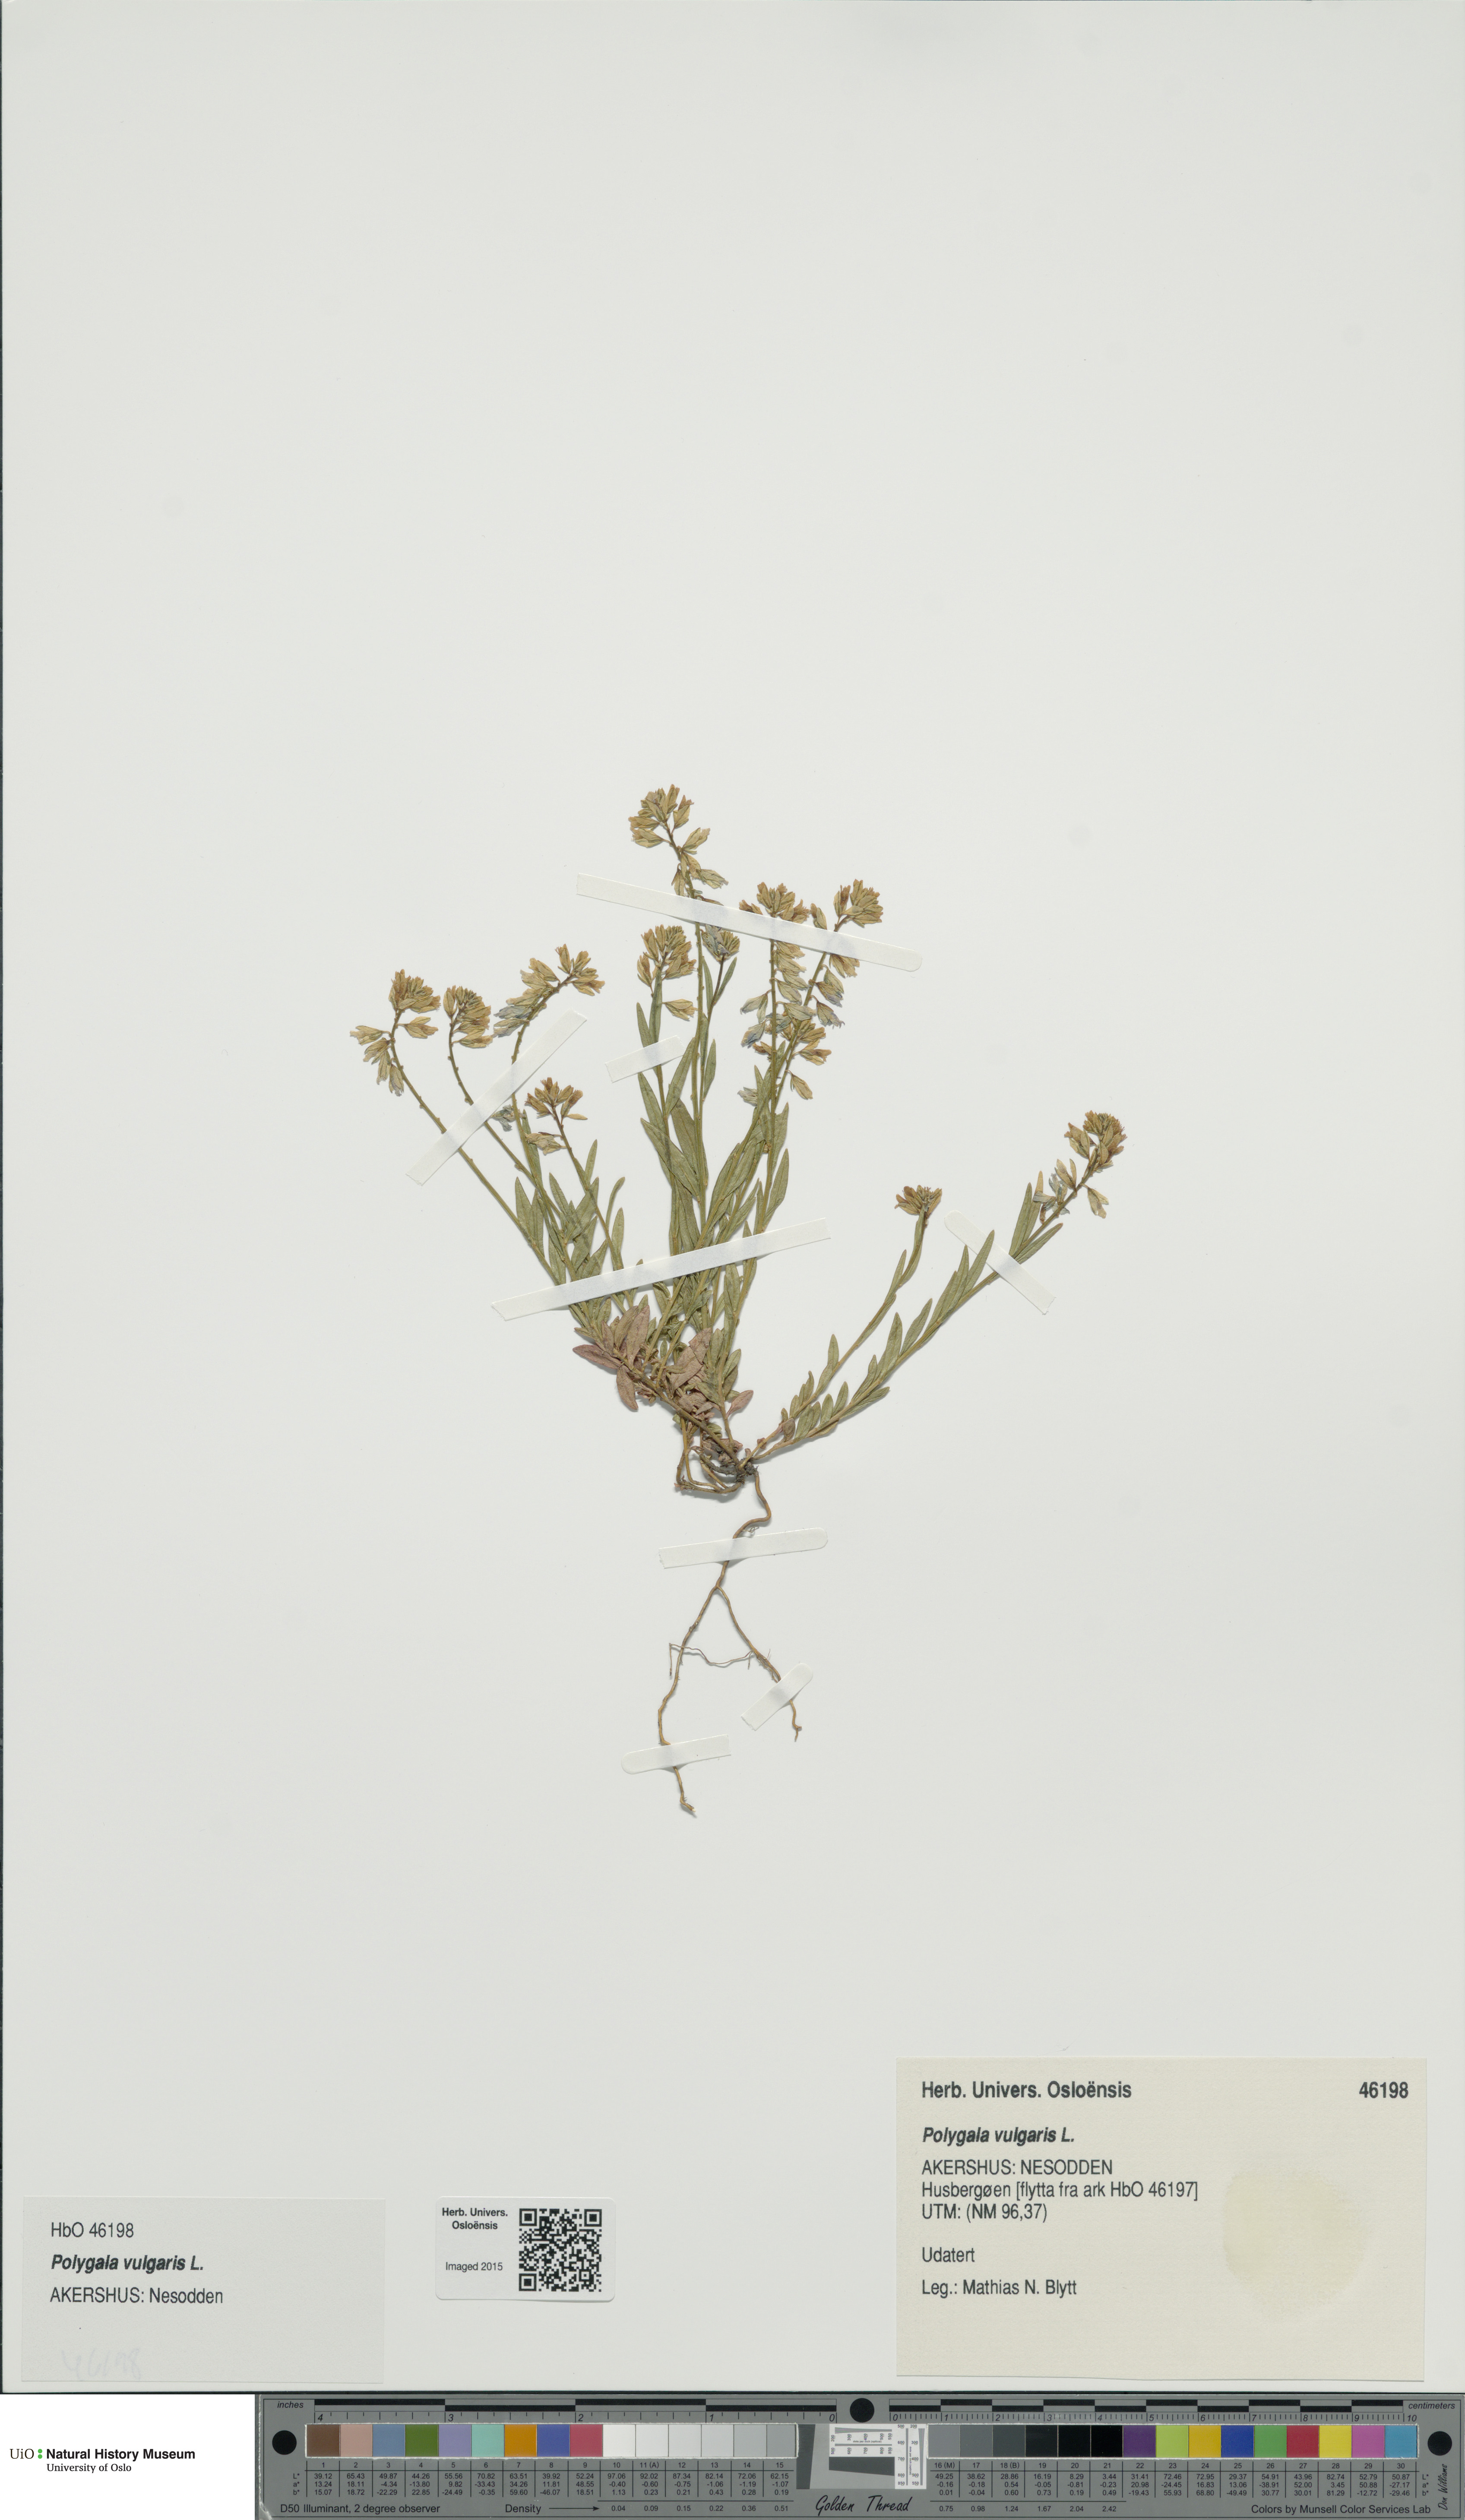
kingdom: Plantae
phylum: Tracheophyta
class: Magnoliopsida
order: Fabales
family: Polygalaceae
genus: Polygala
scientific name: Polygala vulgaris
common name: Common milkwort
